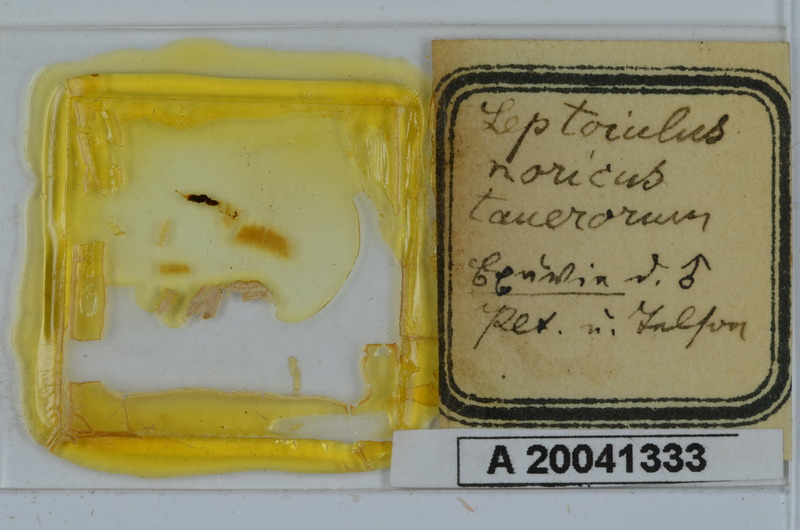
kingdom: Animalia
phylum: Arthropoda
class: Diplopoda
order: Julida
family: Julidae
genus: Leptoiulus
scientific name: Leptoiulus noricus
